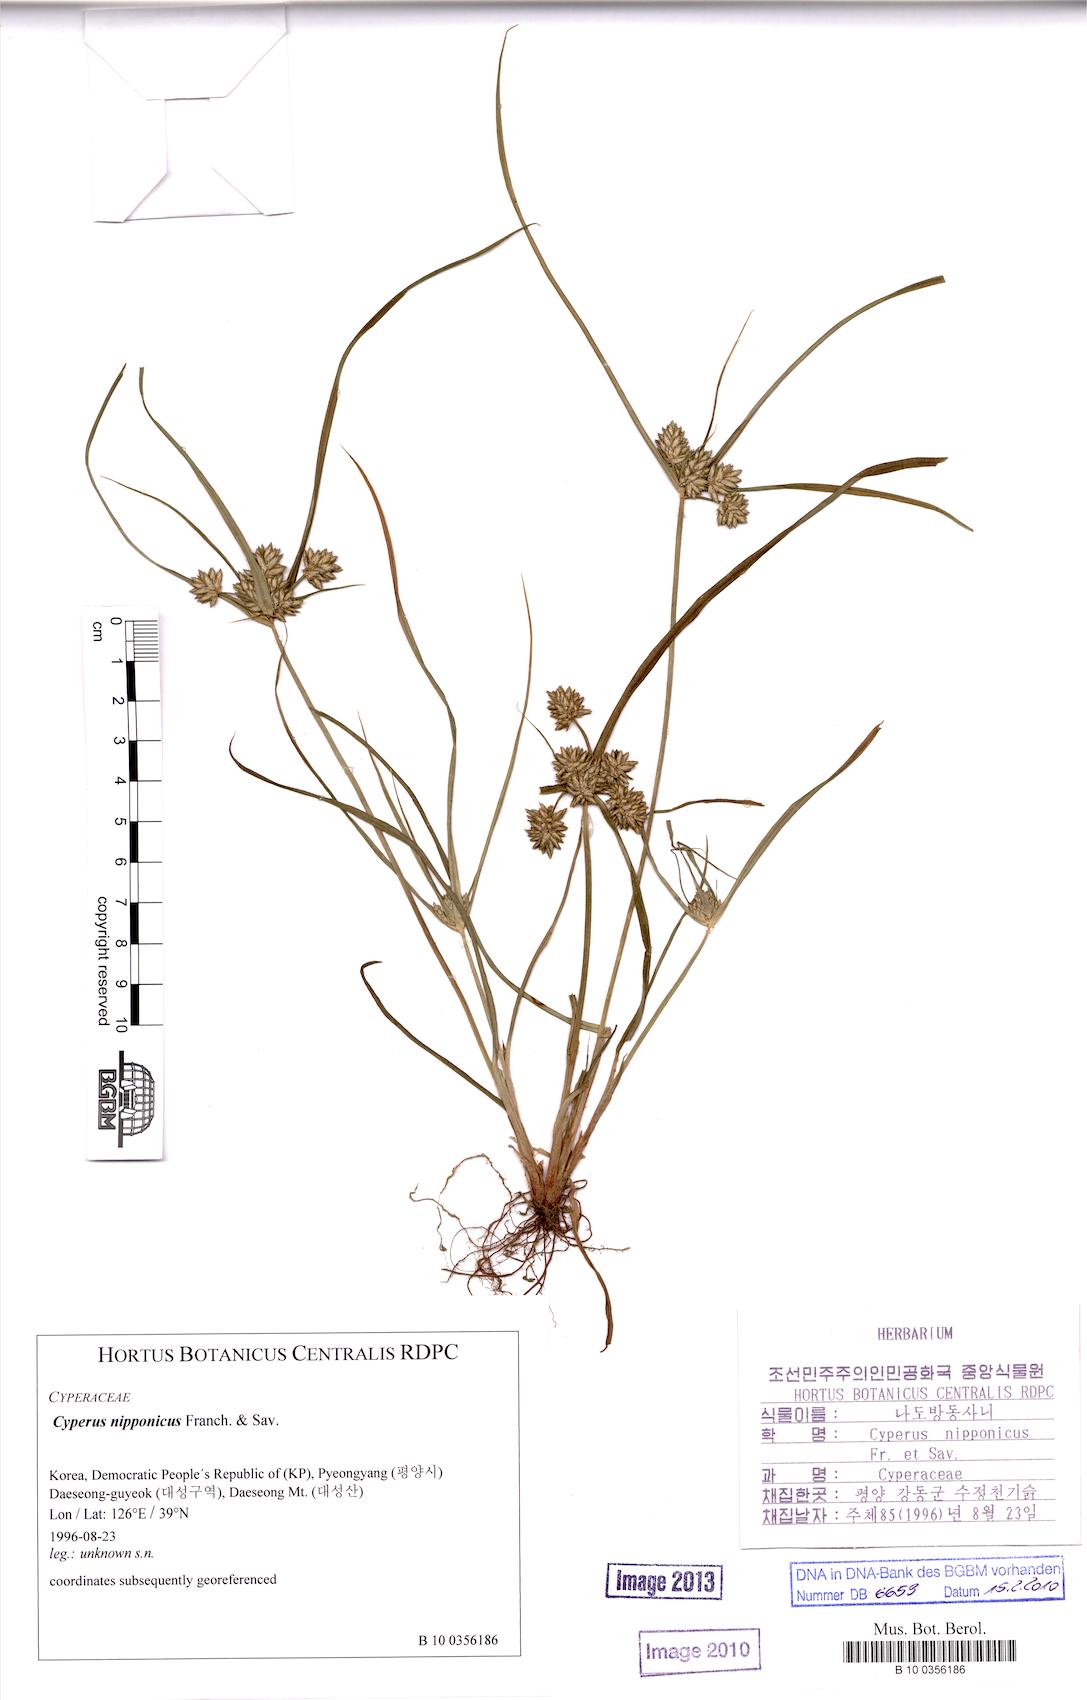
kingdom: Plantae
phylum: Tracheophyta
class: Liliopsida
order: Poales
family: Cyperaceae
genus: Cyperus
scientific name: Cyperus nipponicus
